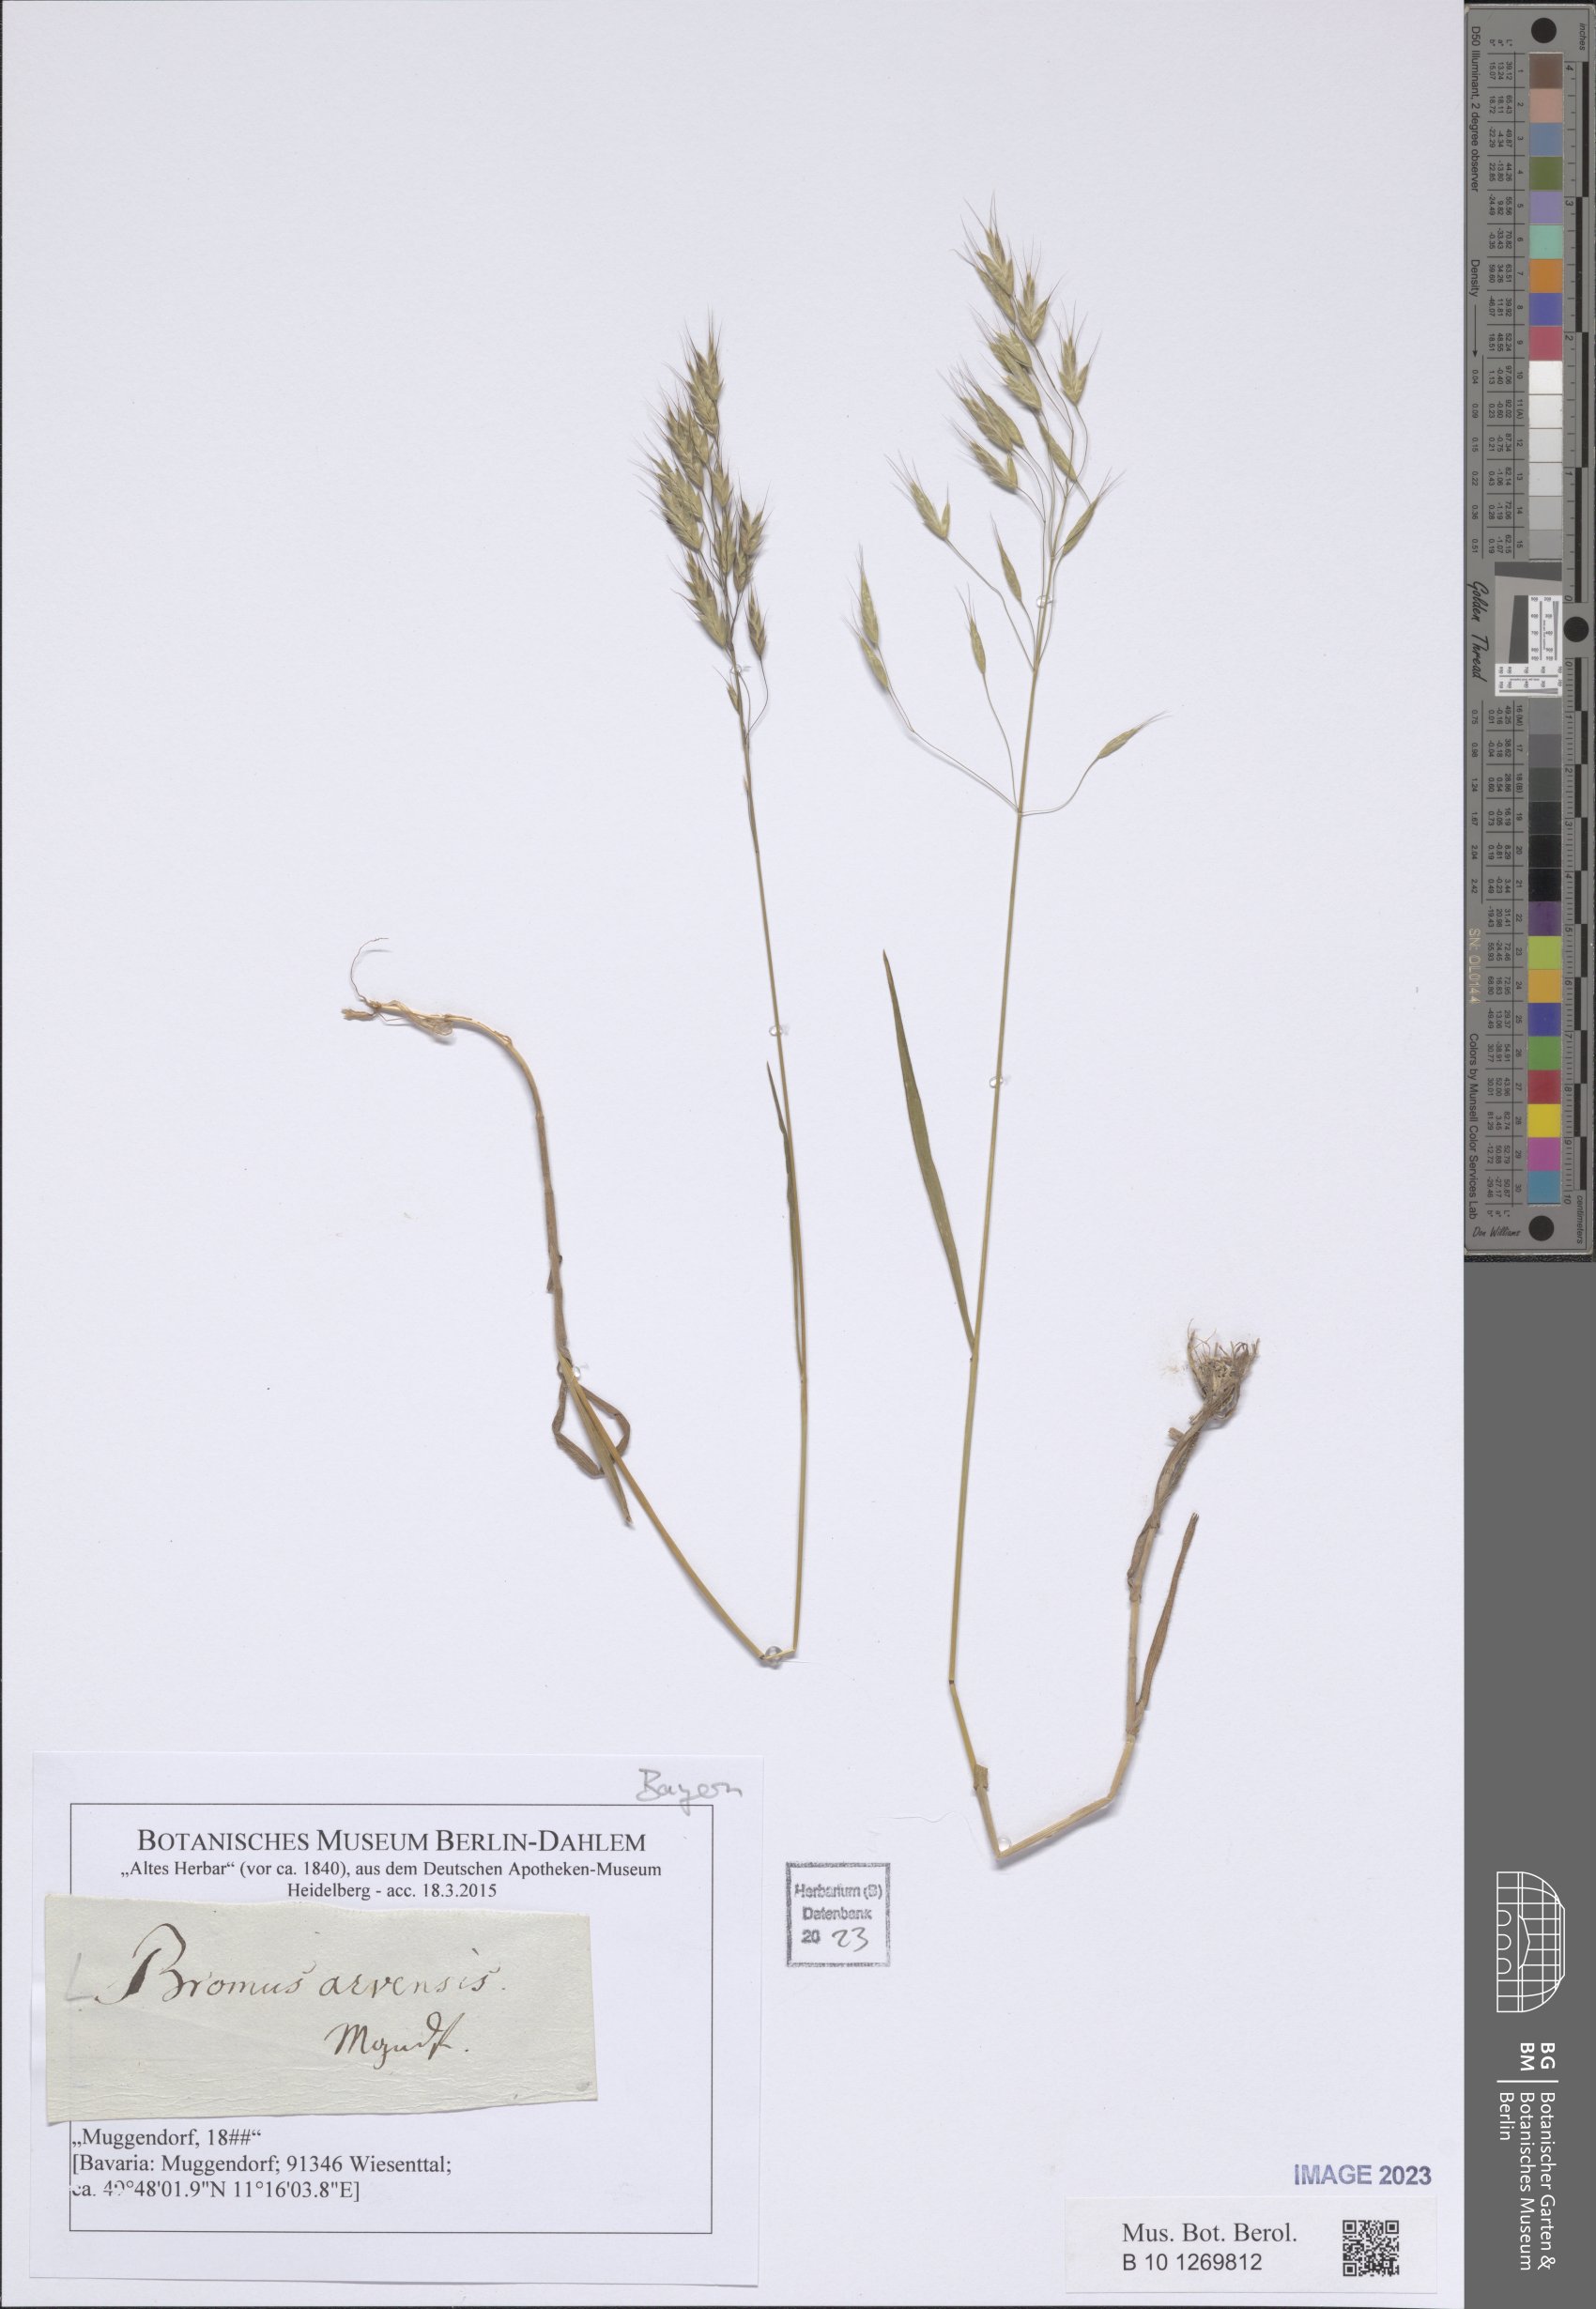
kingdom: Plantae
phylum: Tracheophyta
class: Liliopsida
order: Poales
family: Poaceae
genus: Bromus
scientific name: Bromus arvensis
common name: Field brome
